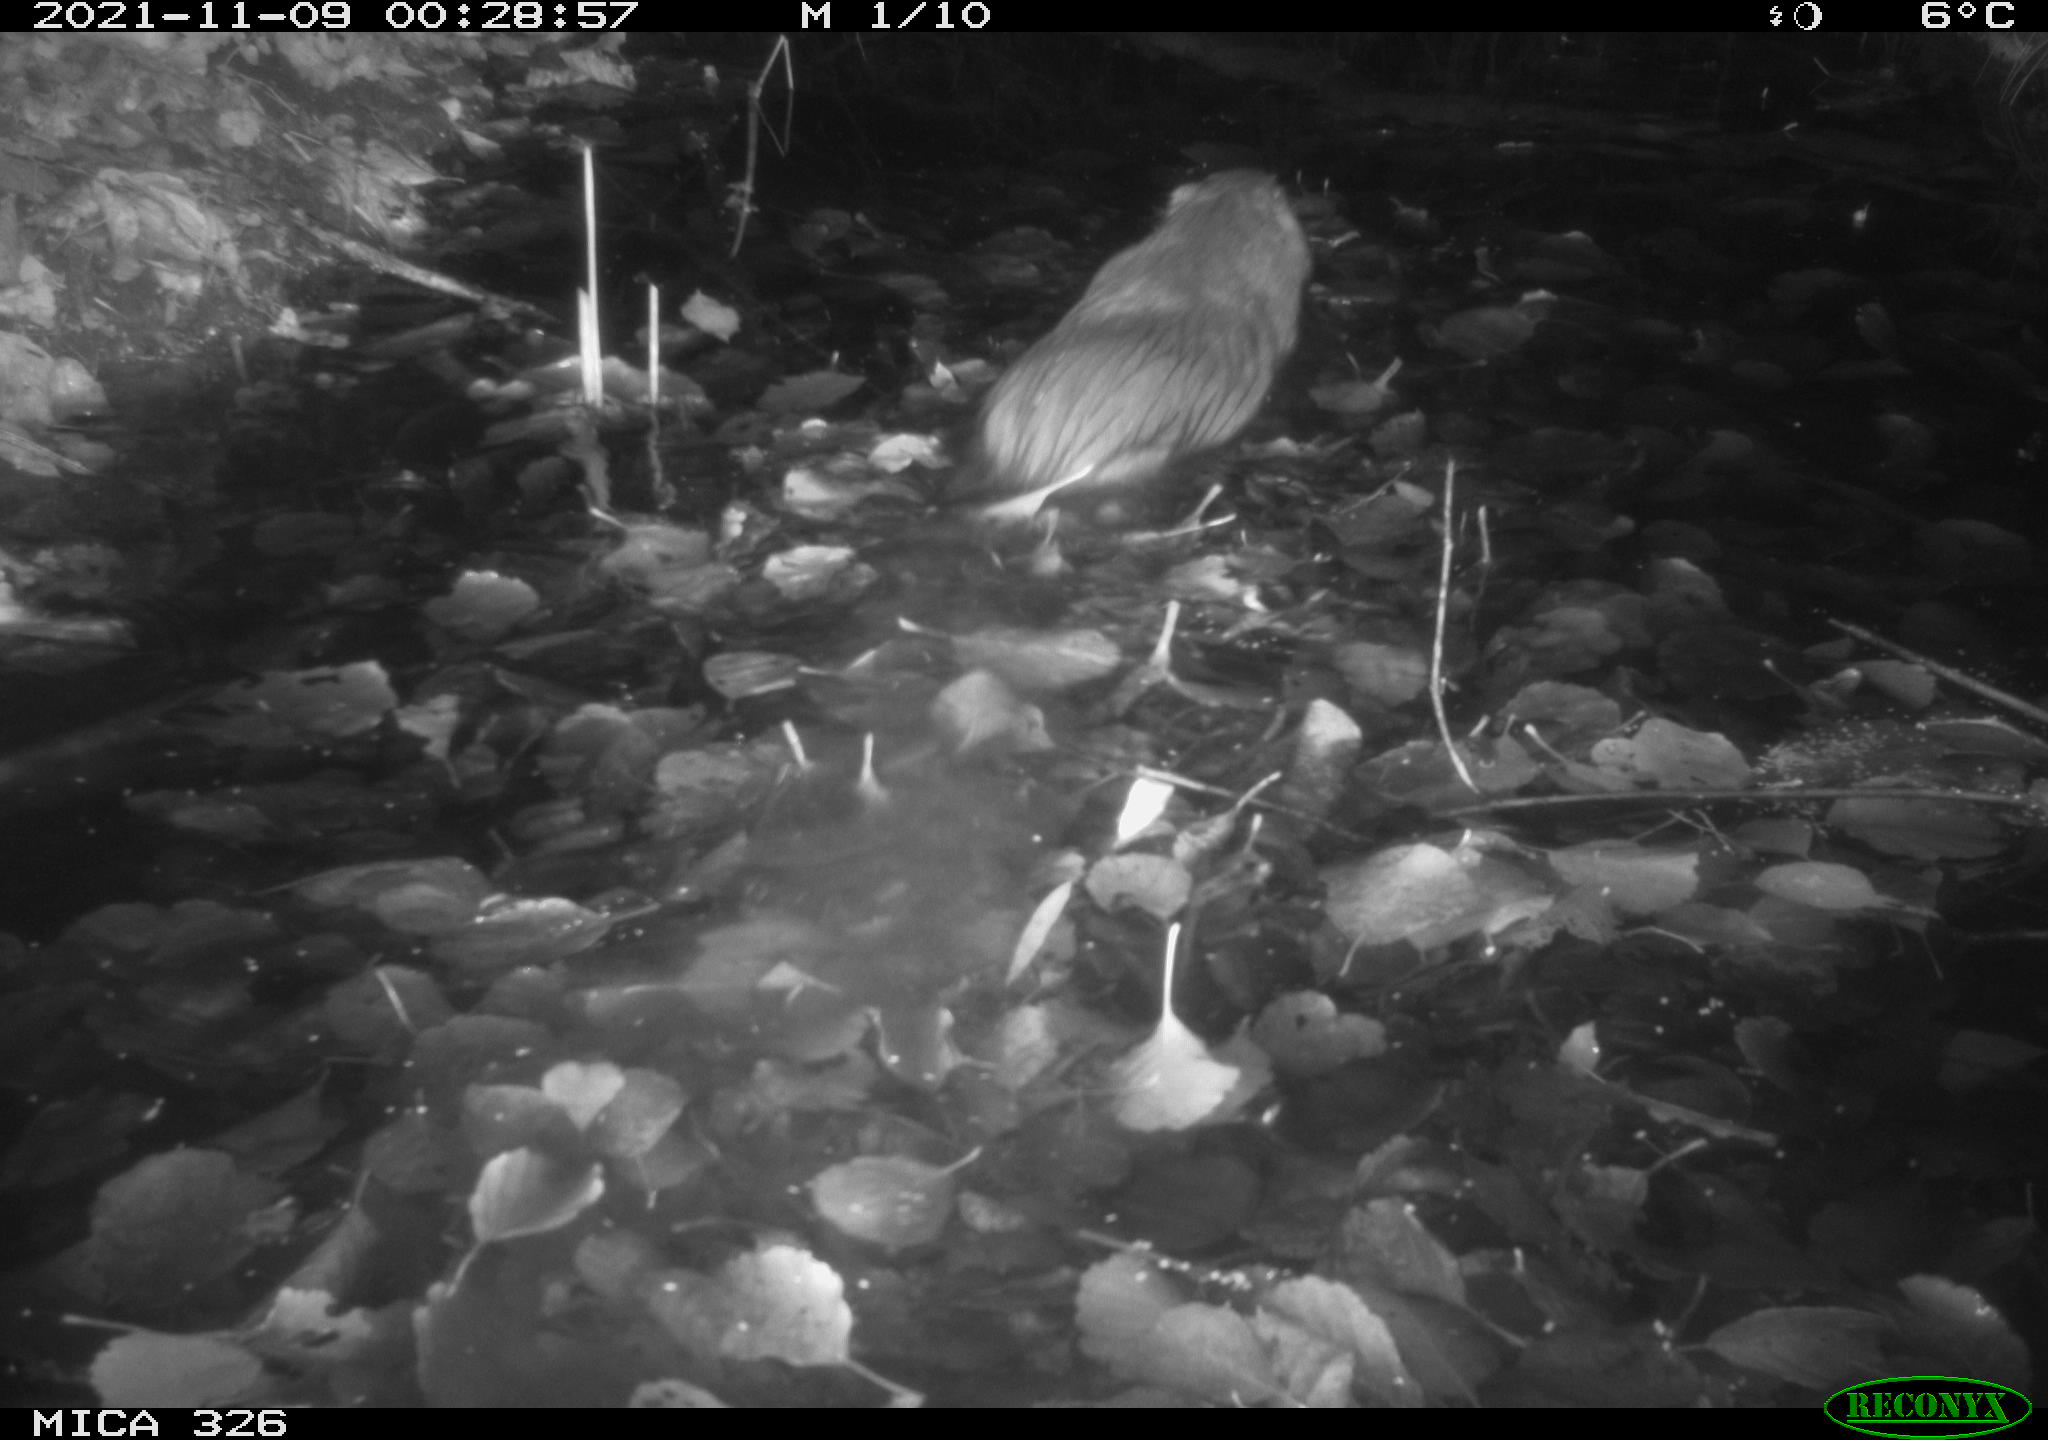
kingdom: Animalia
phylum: Chordata
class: Mammalia
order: Rodentia
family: Myocastoridae
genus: Myocastor
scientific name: Myocastor coypus
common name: Coypu
